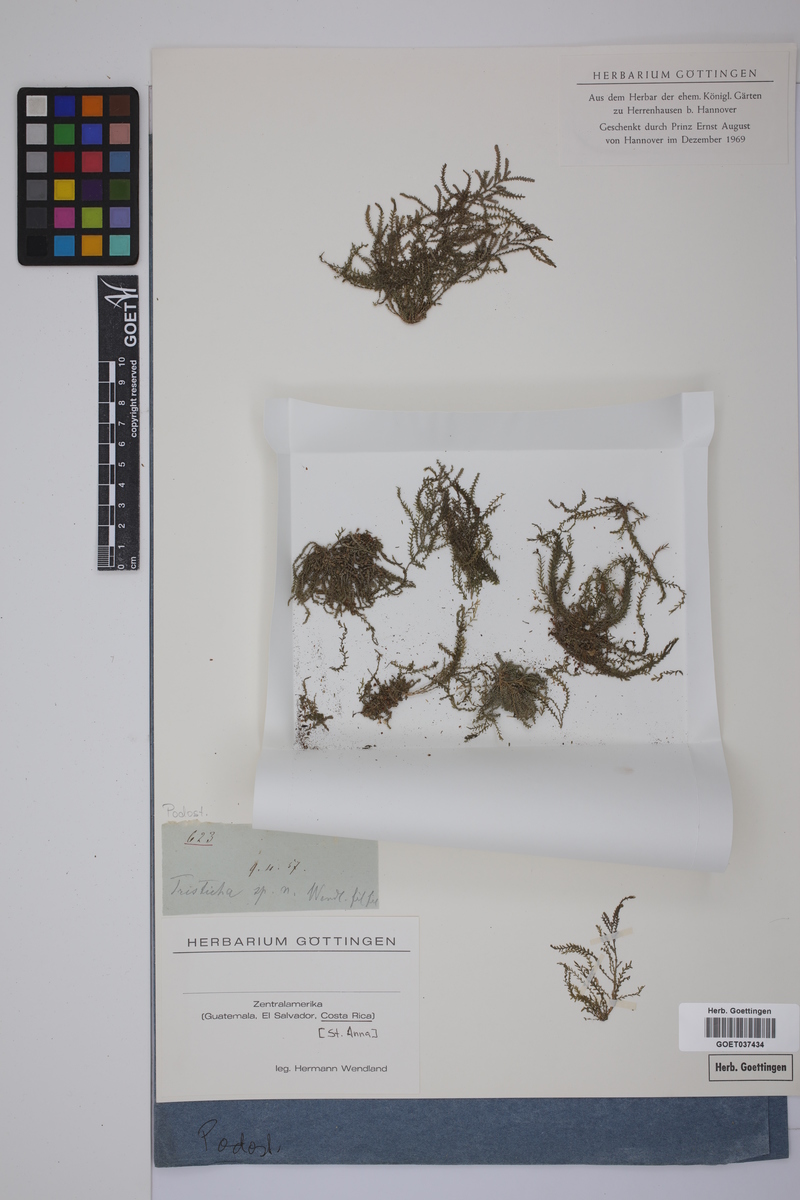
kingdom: Plantae
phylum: Tracheophyta
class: Magnoliopsida
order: Malpighiales
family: Podostemaceae
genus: Tristicha
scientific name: Tristicha trifaria
